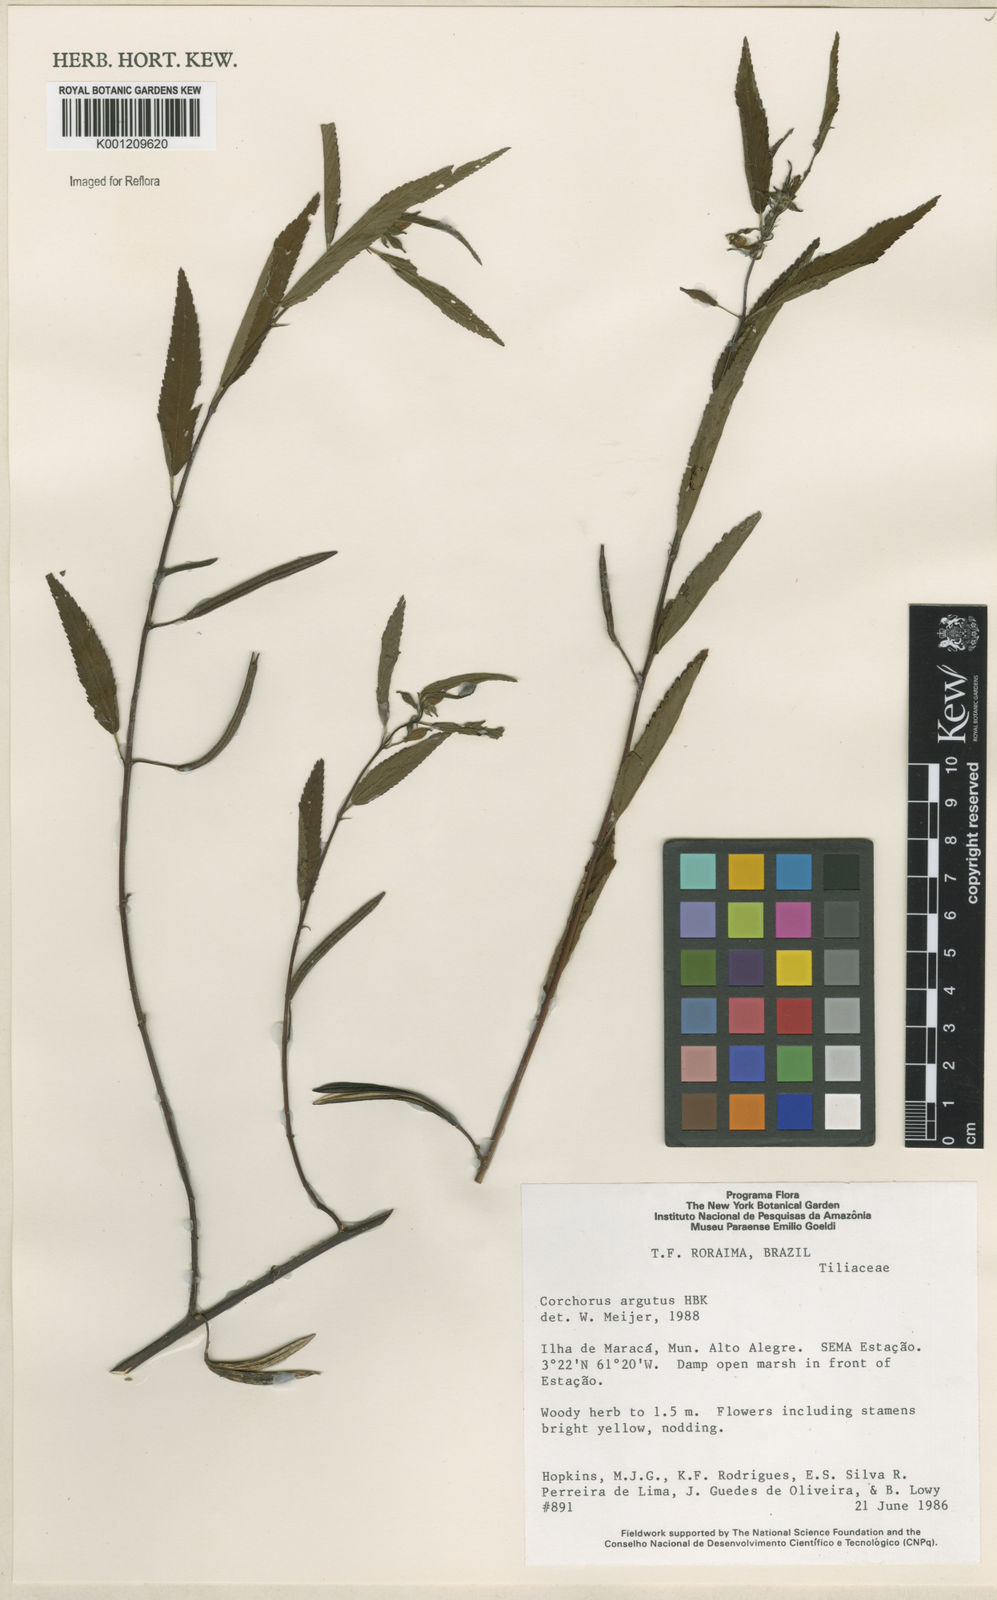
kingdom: Plantae
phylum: Tracheophyta
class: Magnoliopsida
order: Malvales
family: Malvaceae
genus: Corchorus
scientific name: Corchorus argutus
